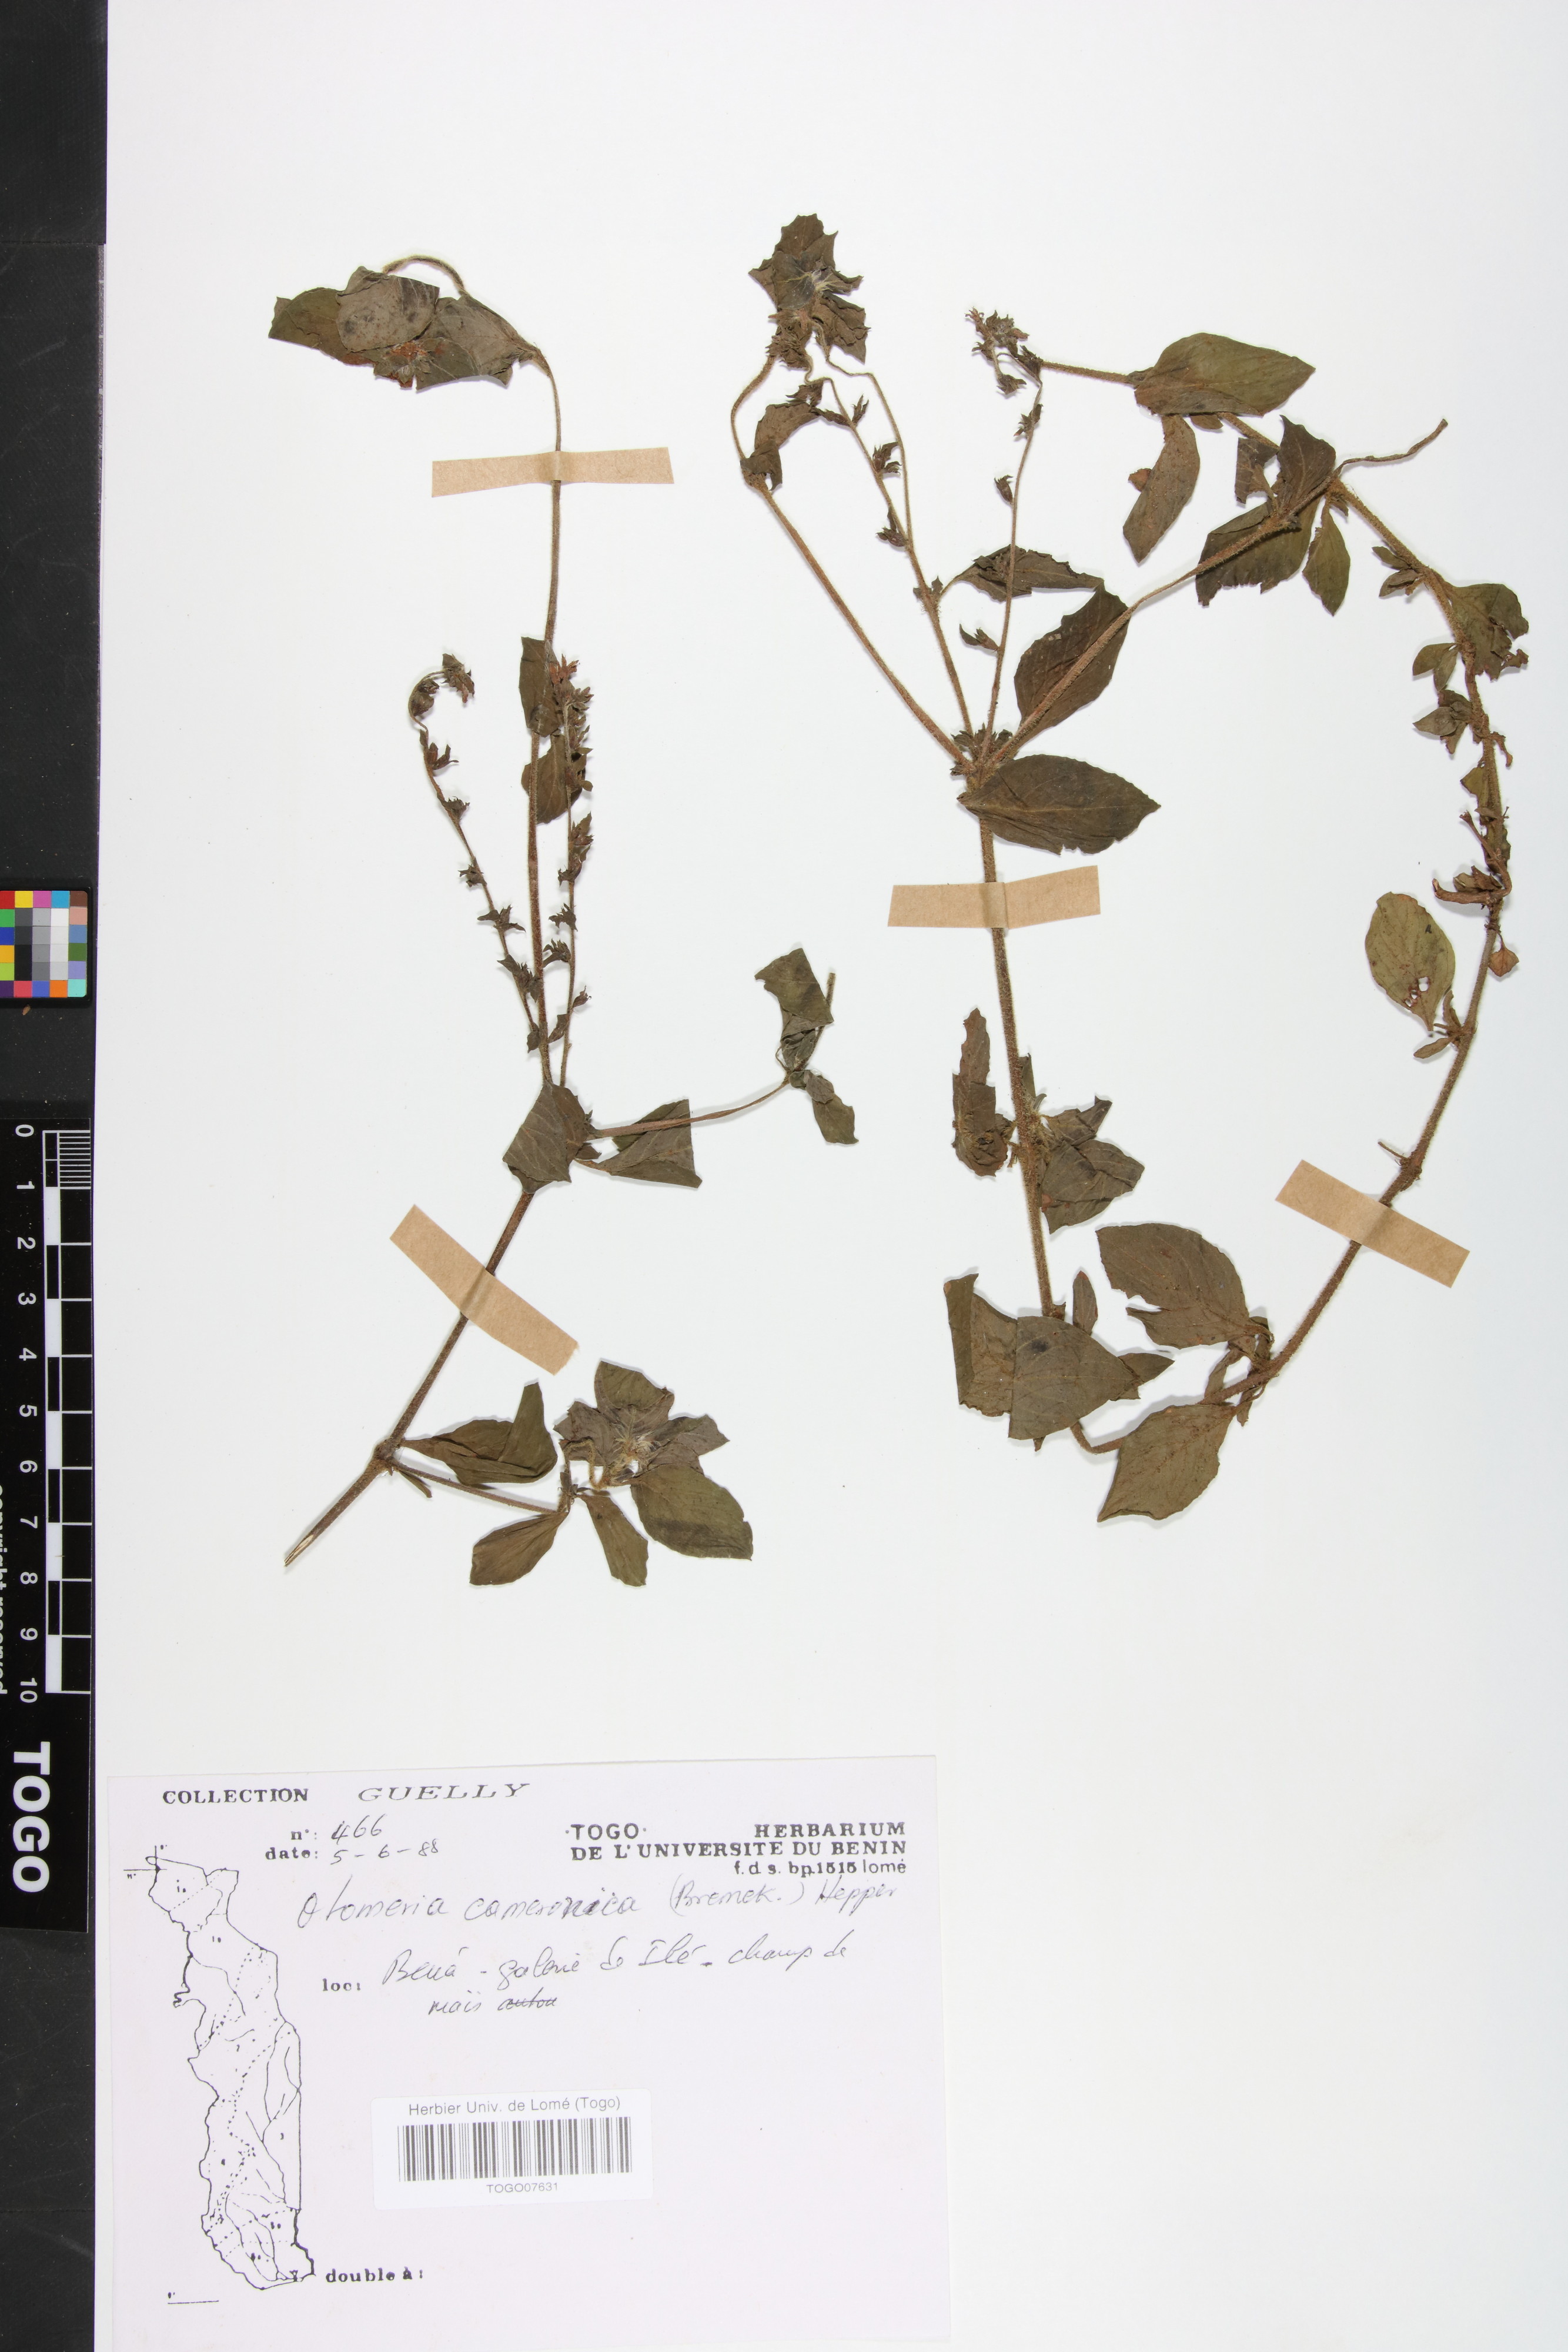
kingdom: Plantae
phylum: Tracheophyta
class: Magnoliopsida
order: Gentianales
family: Rubiaceae
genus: Otomeria
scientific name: Otomeria cameronica
